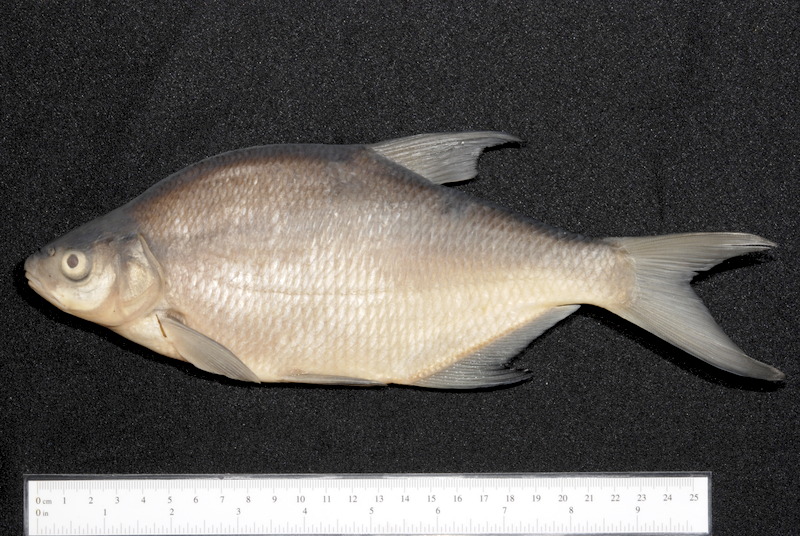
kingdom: Animalia
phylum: Chordata
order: Cypriniformes
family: Cyprinidae
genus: Abramis
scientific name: Abramis brama
